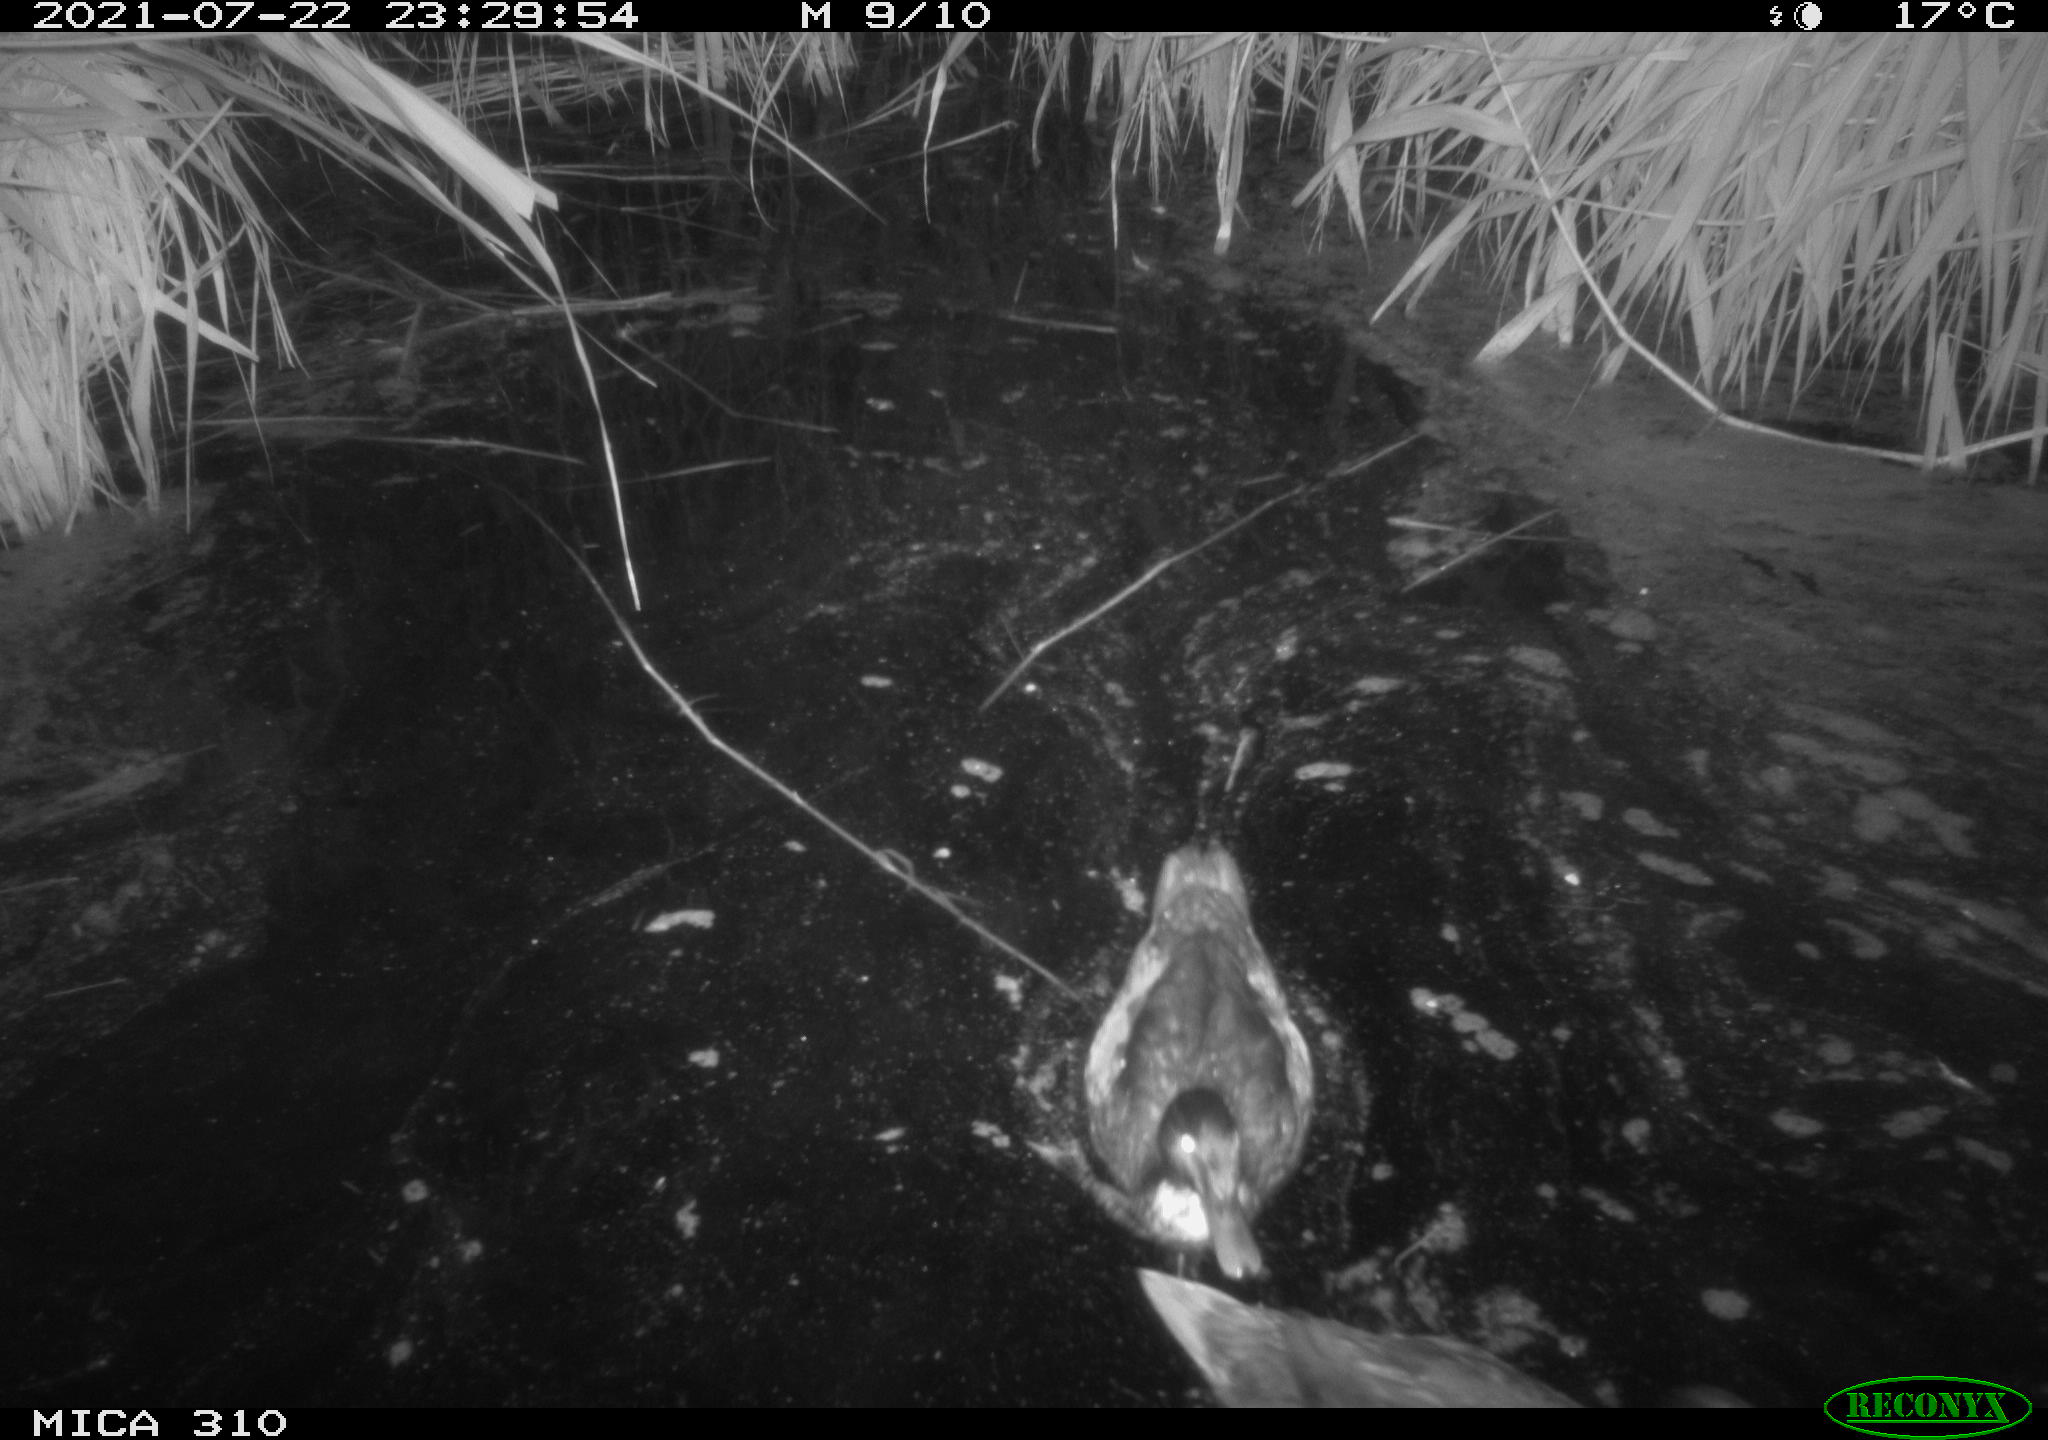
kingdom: Animalia
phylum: Chordata
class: Aves
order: Anseriformes
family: Anatidae
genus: Mareca
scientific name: Mareca strepera
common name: Gadwall
